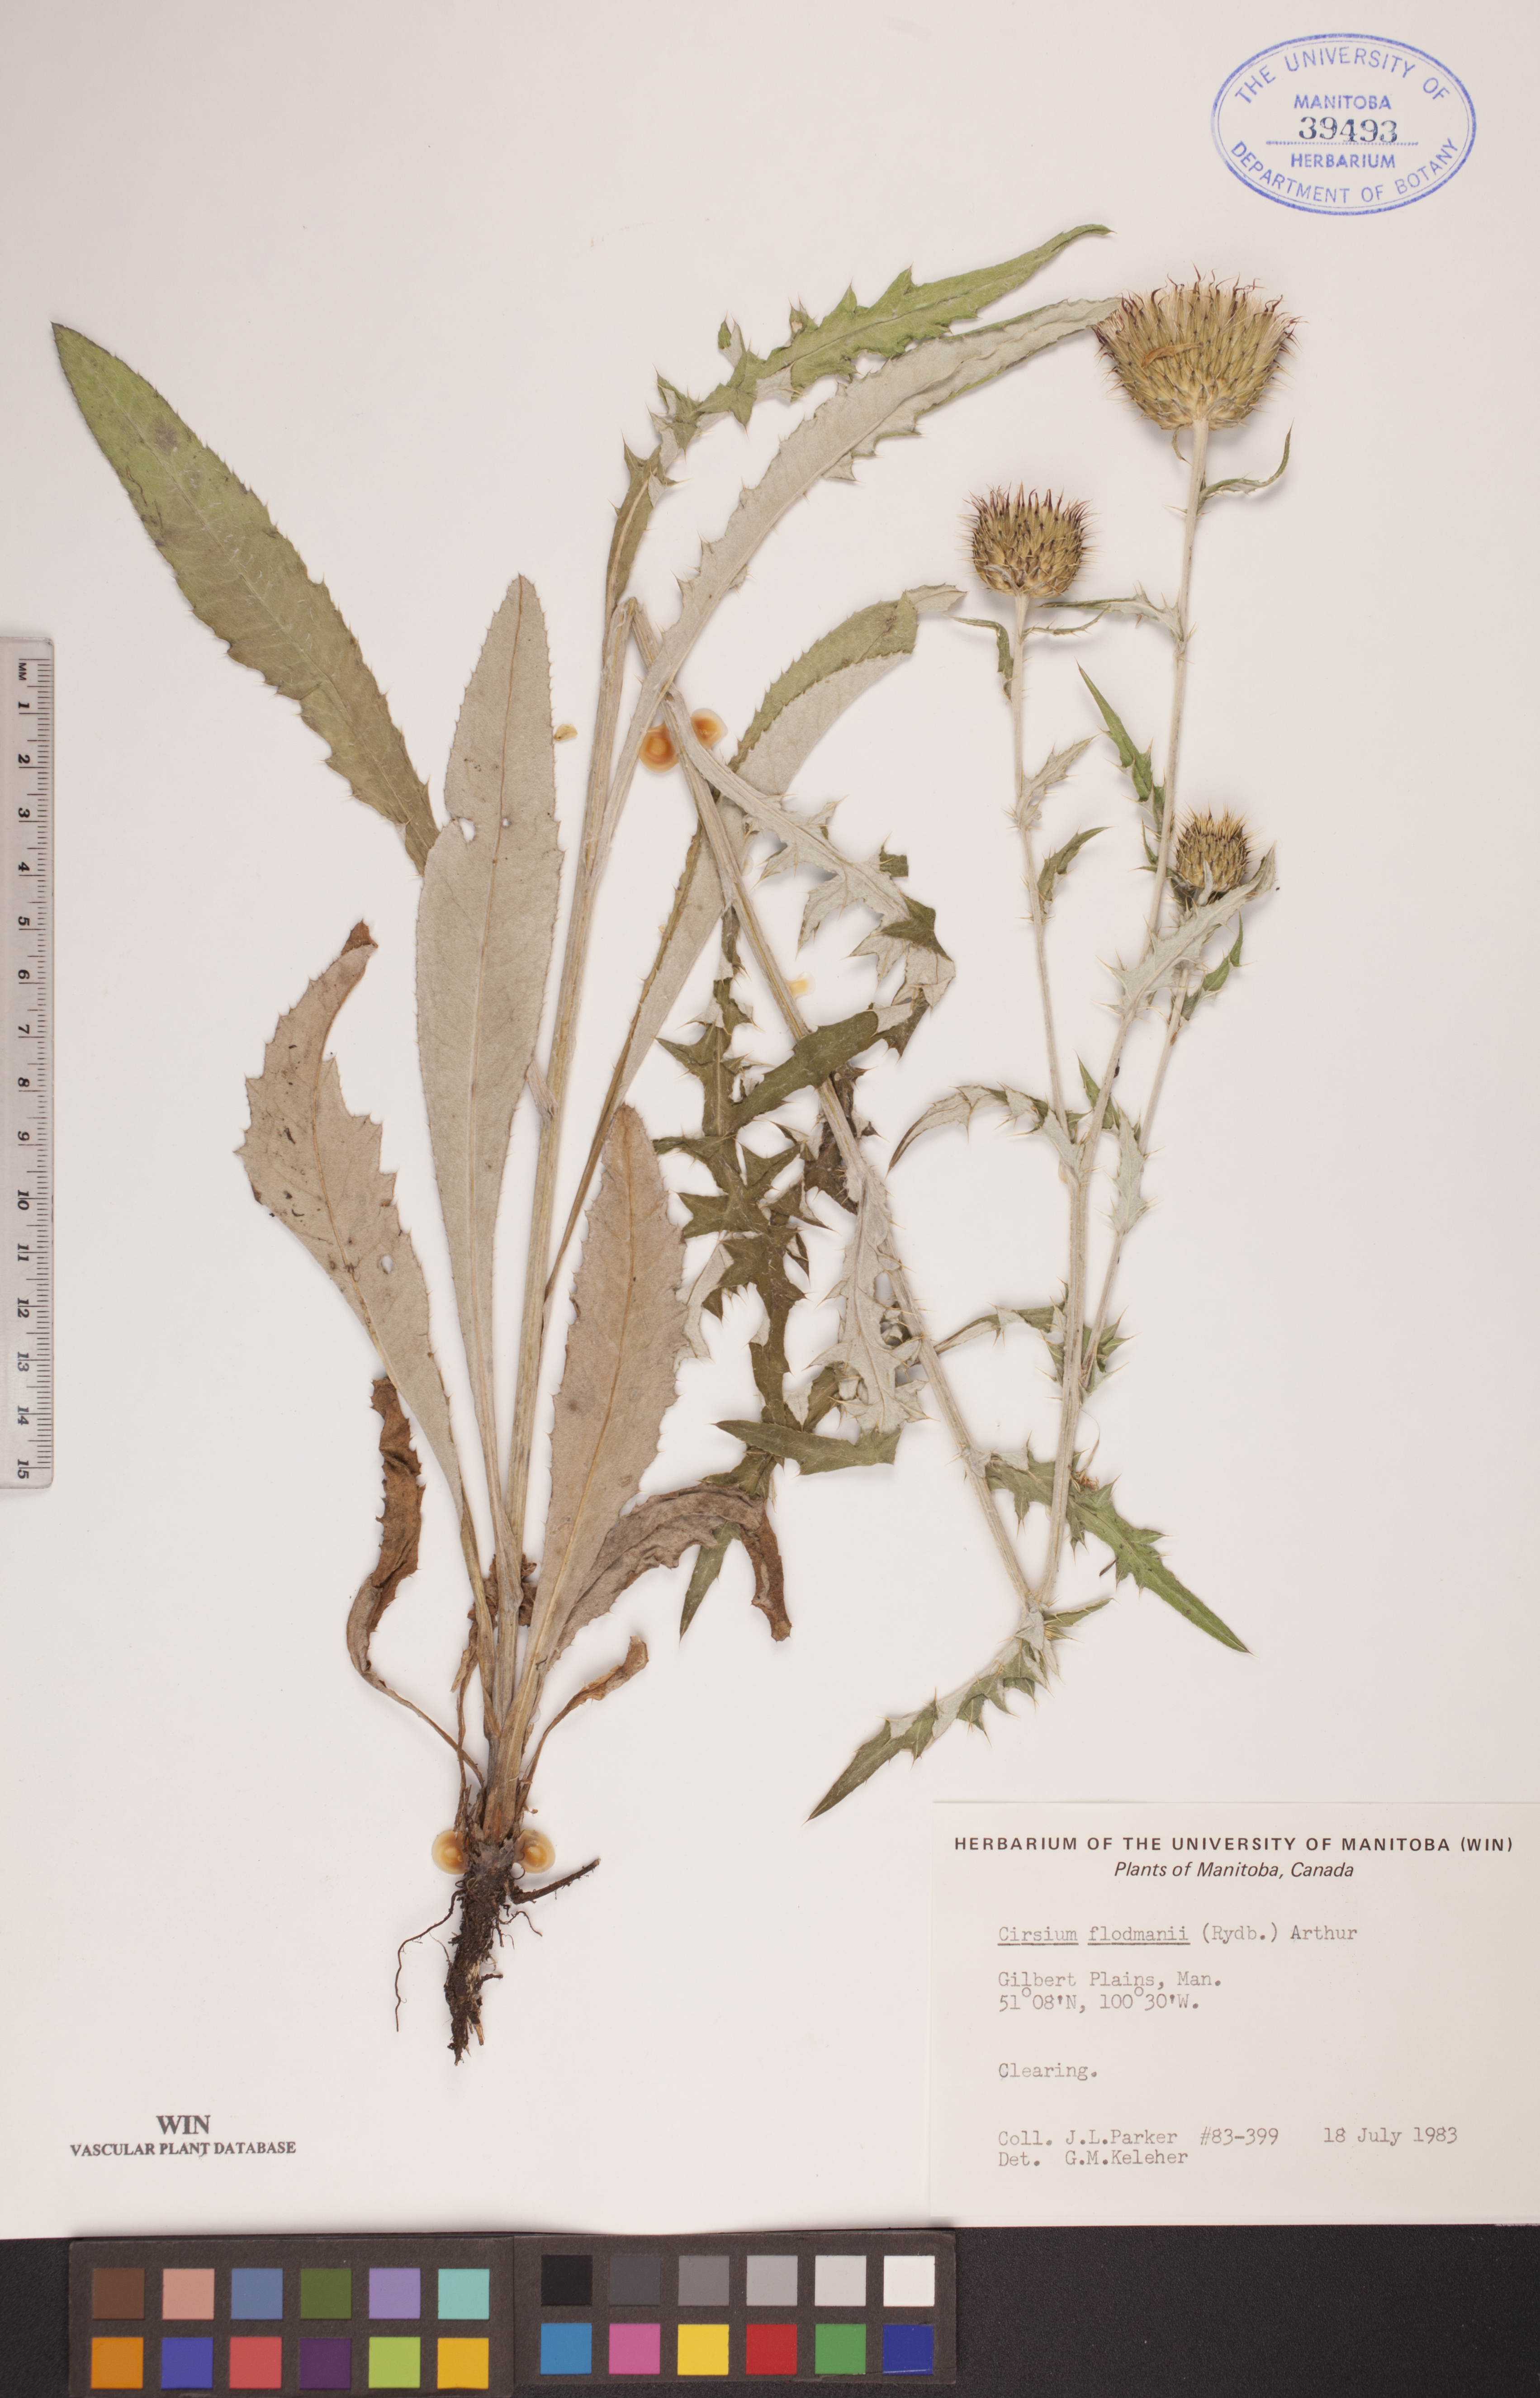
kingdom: Plantae
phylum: Tracheophyta
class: Magnoliopsida
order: Asterales
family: Asteraceae
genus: Cirsium
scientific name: Cirsium flodmanii
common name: Flodman's thistle
